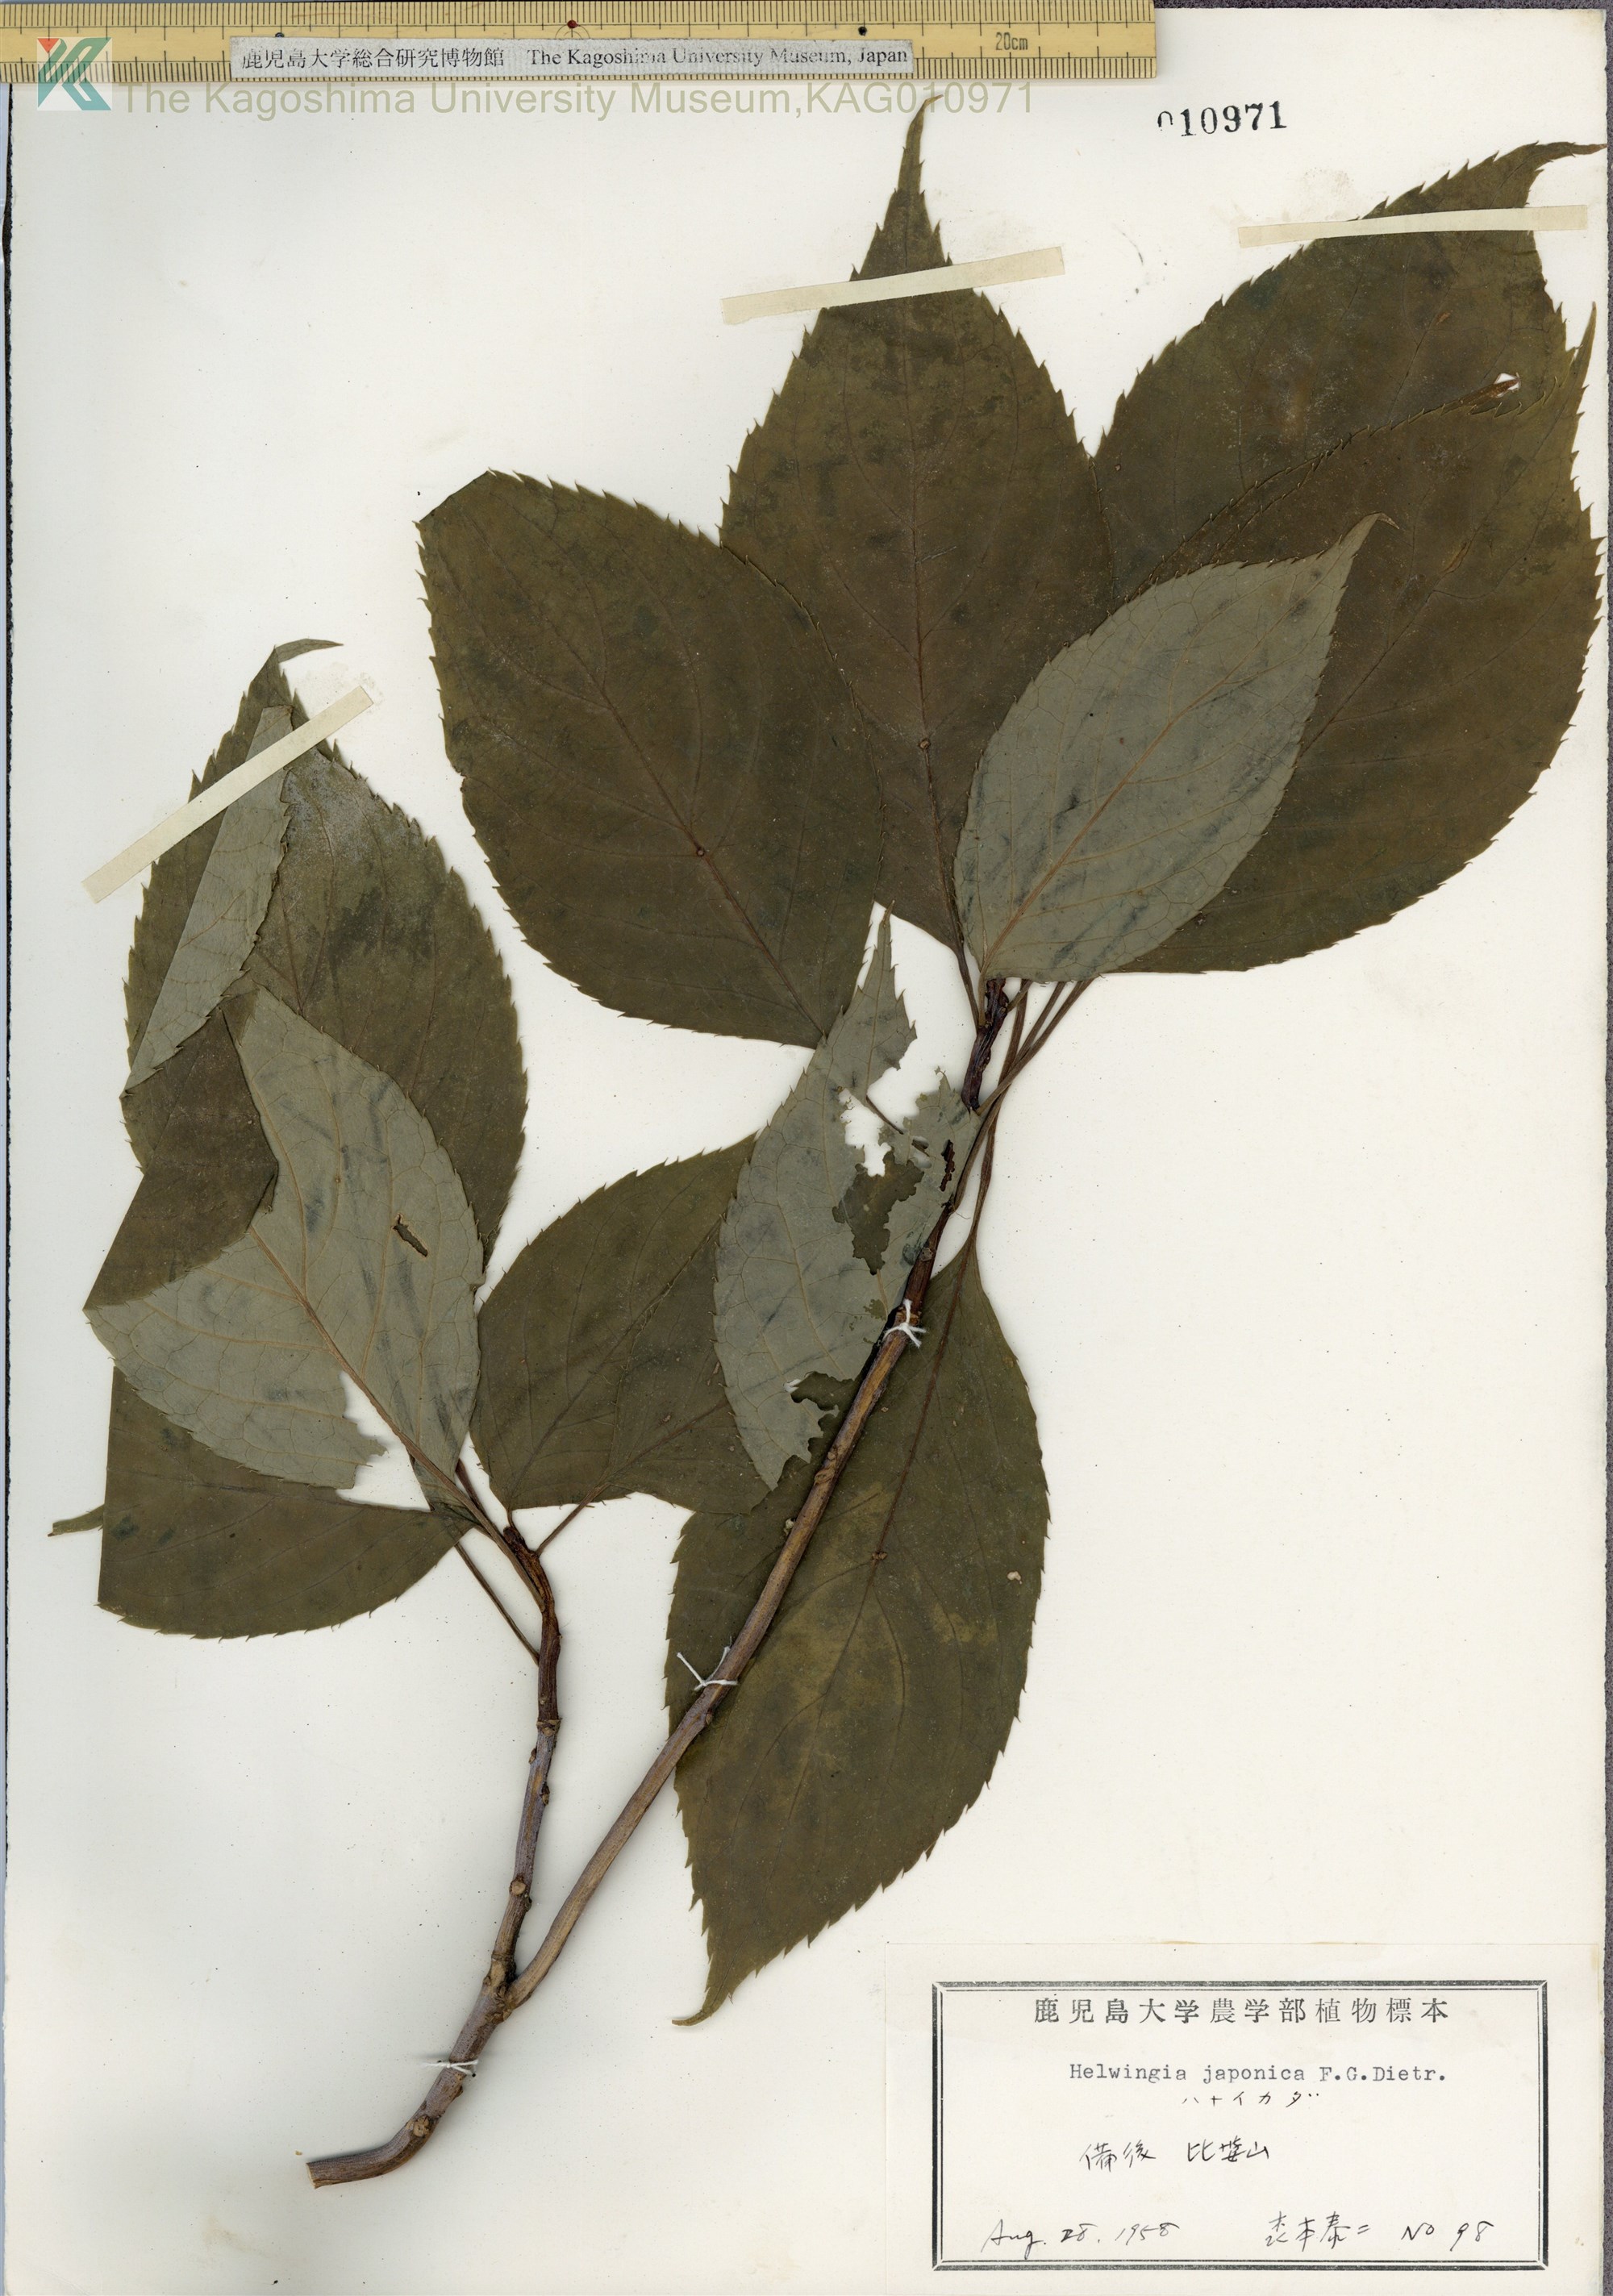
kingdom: Plantae
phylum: Tracheophyta
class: Magnoliopsida
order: Aquifoliales
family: Helwingiaceae
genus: Helwingia
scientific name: Helwingia japonica
